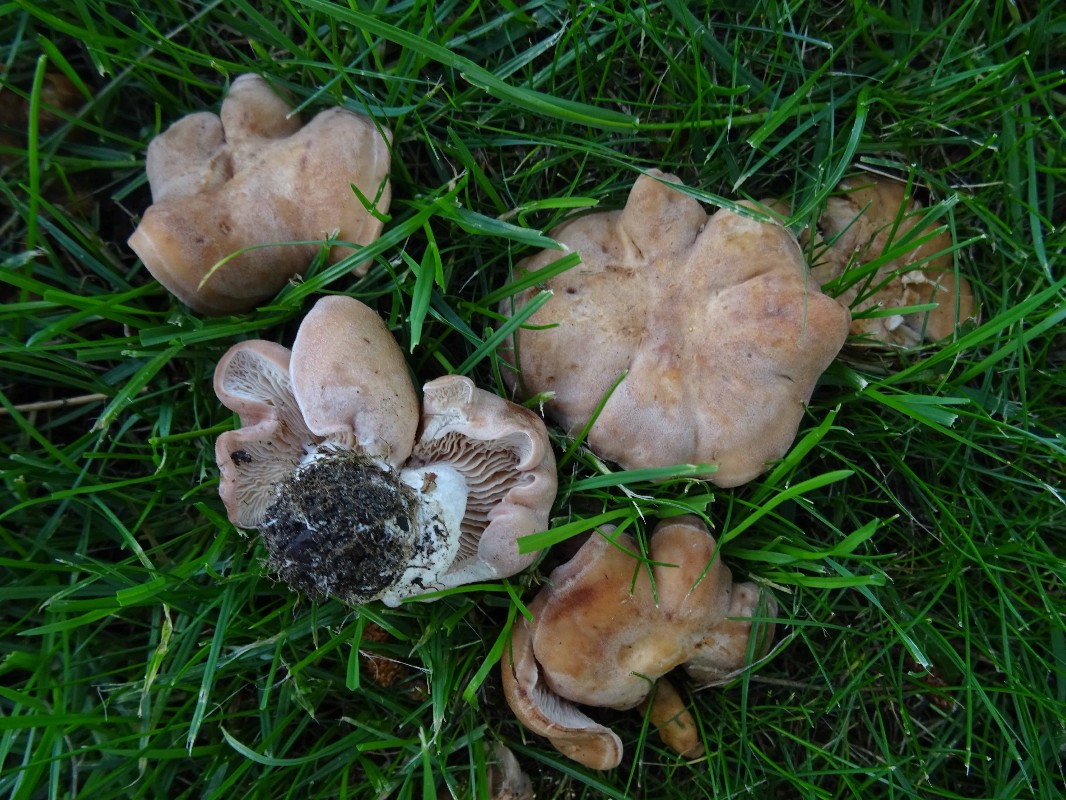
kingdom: Fungi
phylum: Basidiomycota
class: Agaricomycetes
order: Agaricales
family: Entolomataceae
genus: Clitopilus
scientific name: Clitopilus geminus
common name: kødfarvet troldhat
